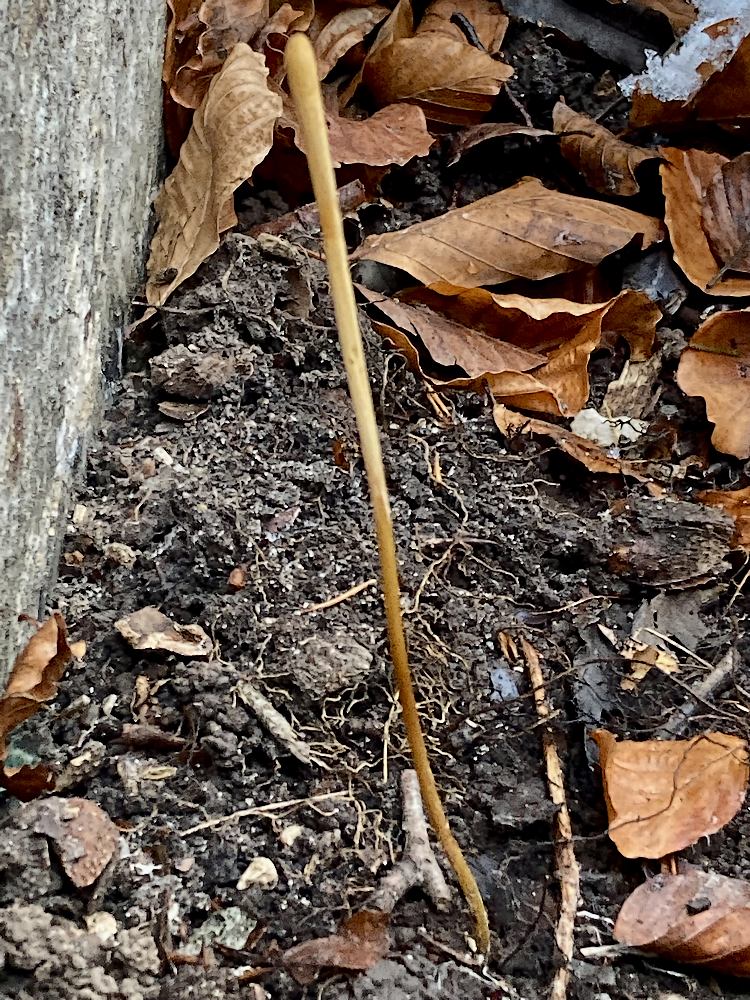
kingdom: Fungi
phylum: Basidiomycota
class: Agaricomycetes
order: Agaricales
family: Typhulaceae
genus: Typhula
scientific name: Typhula fistulosa
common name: pibet rørkølle
